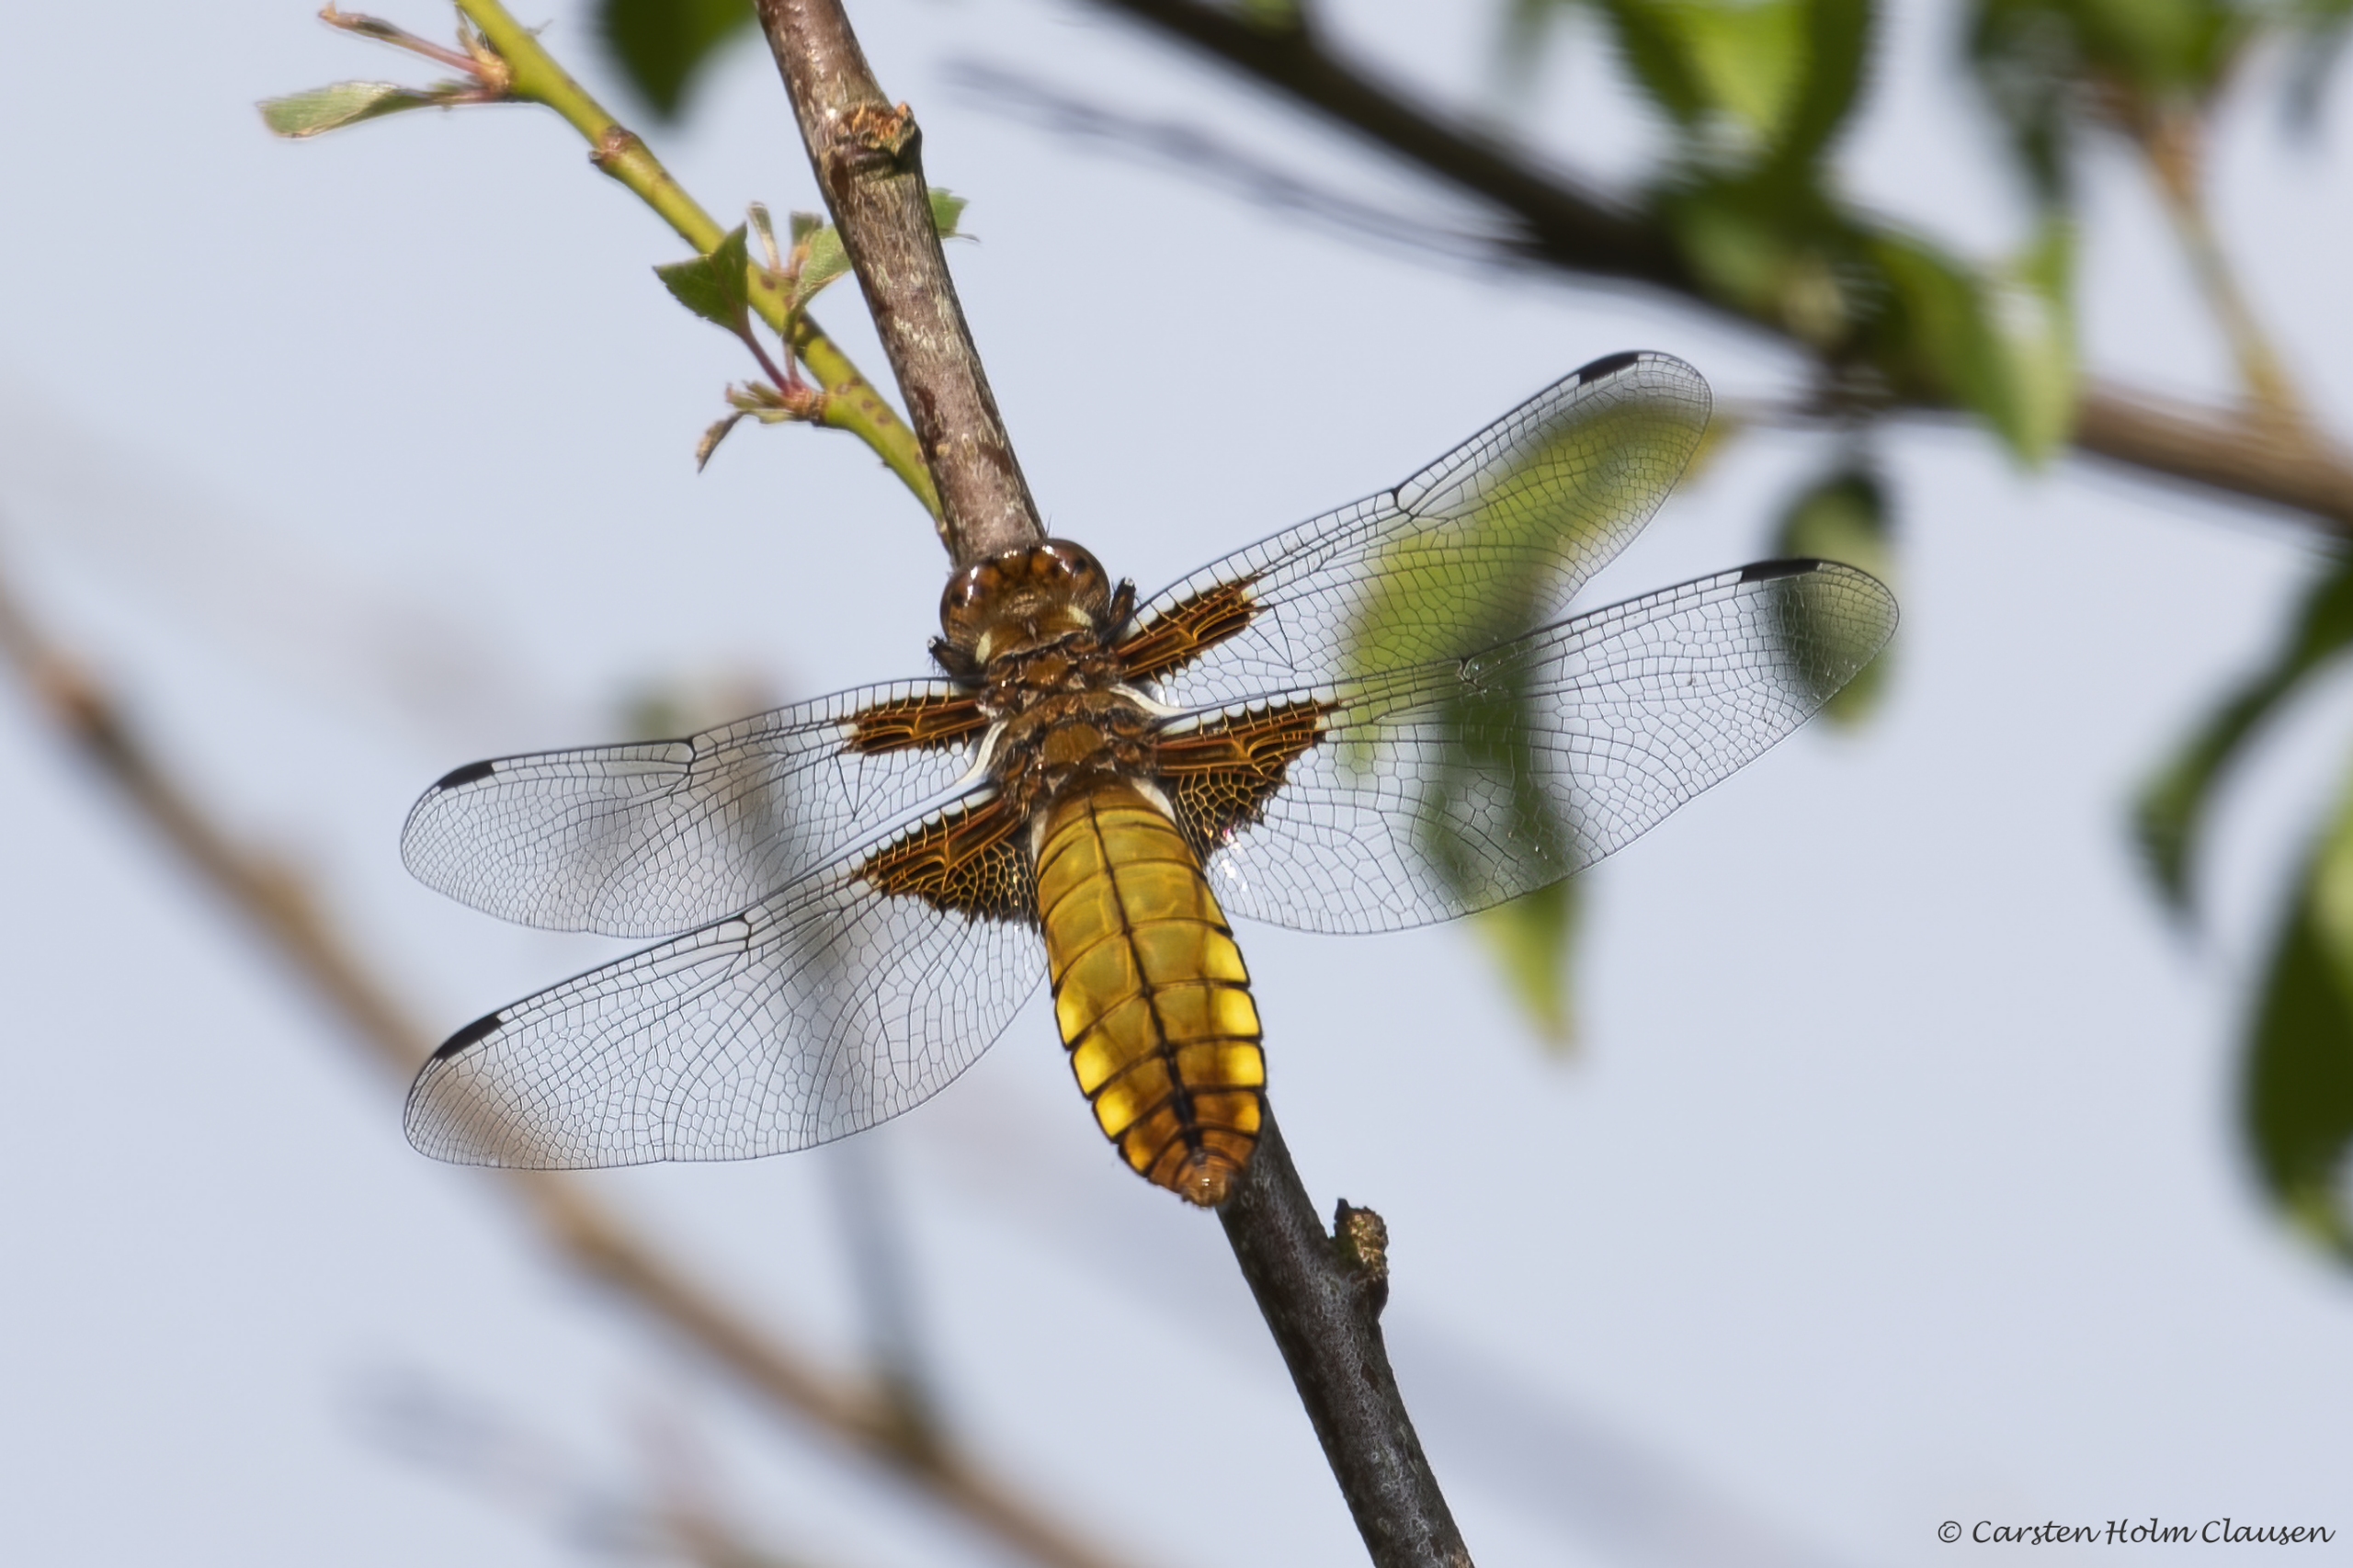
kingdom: Animalia
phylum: Arthropoda
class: Insecta
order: Odonata
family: Libellulidae
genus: Libellula
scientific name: Libellula depressa
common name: Blå libel
